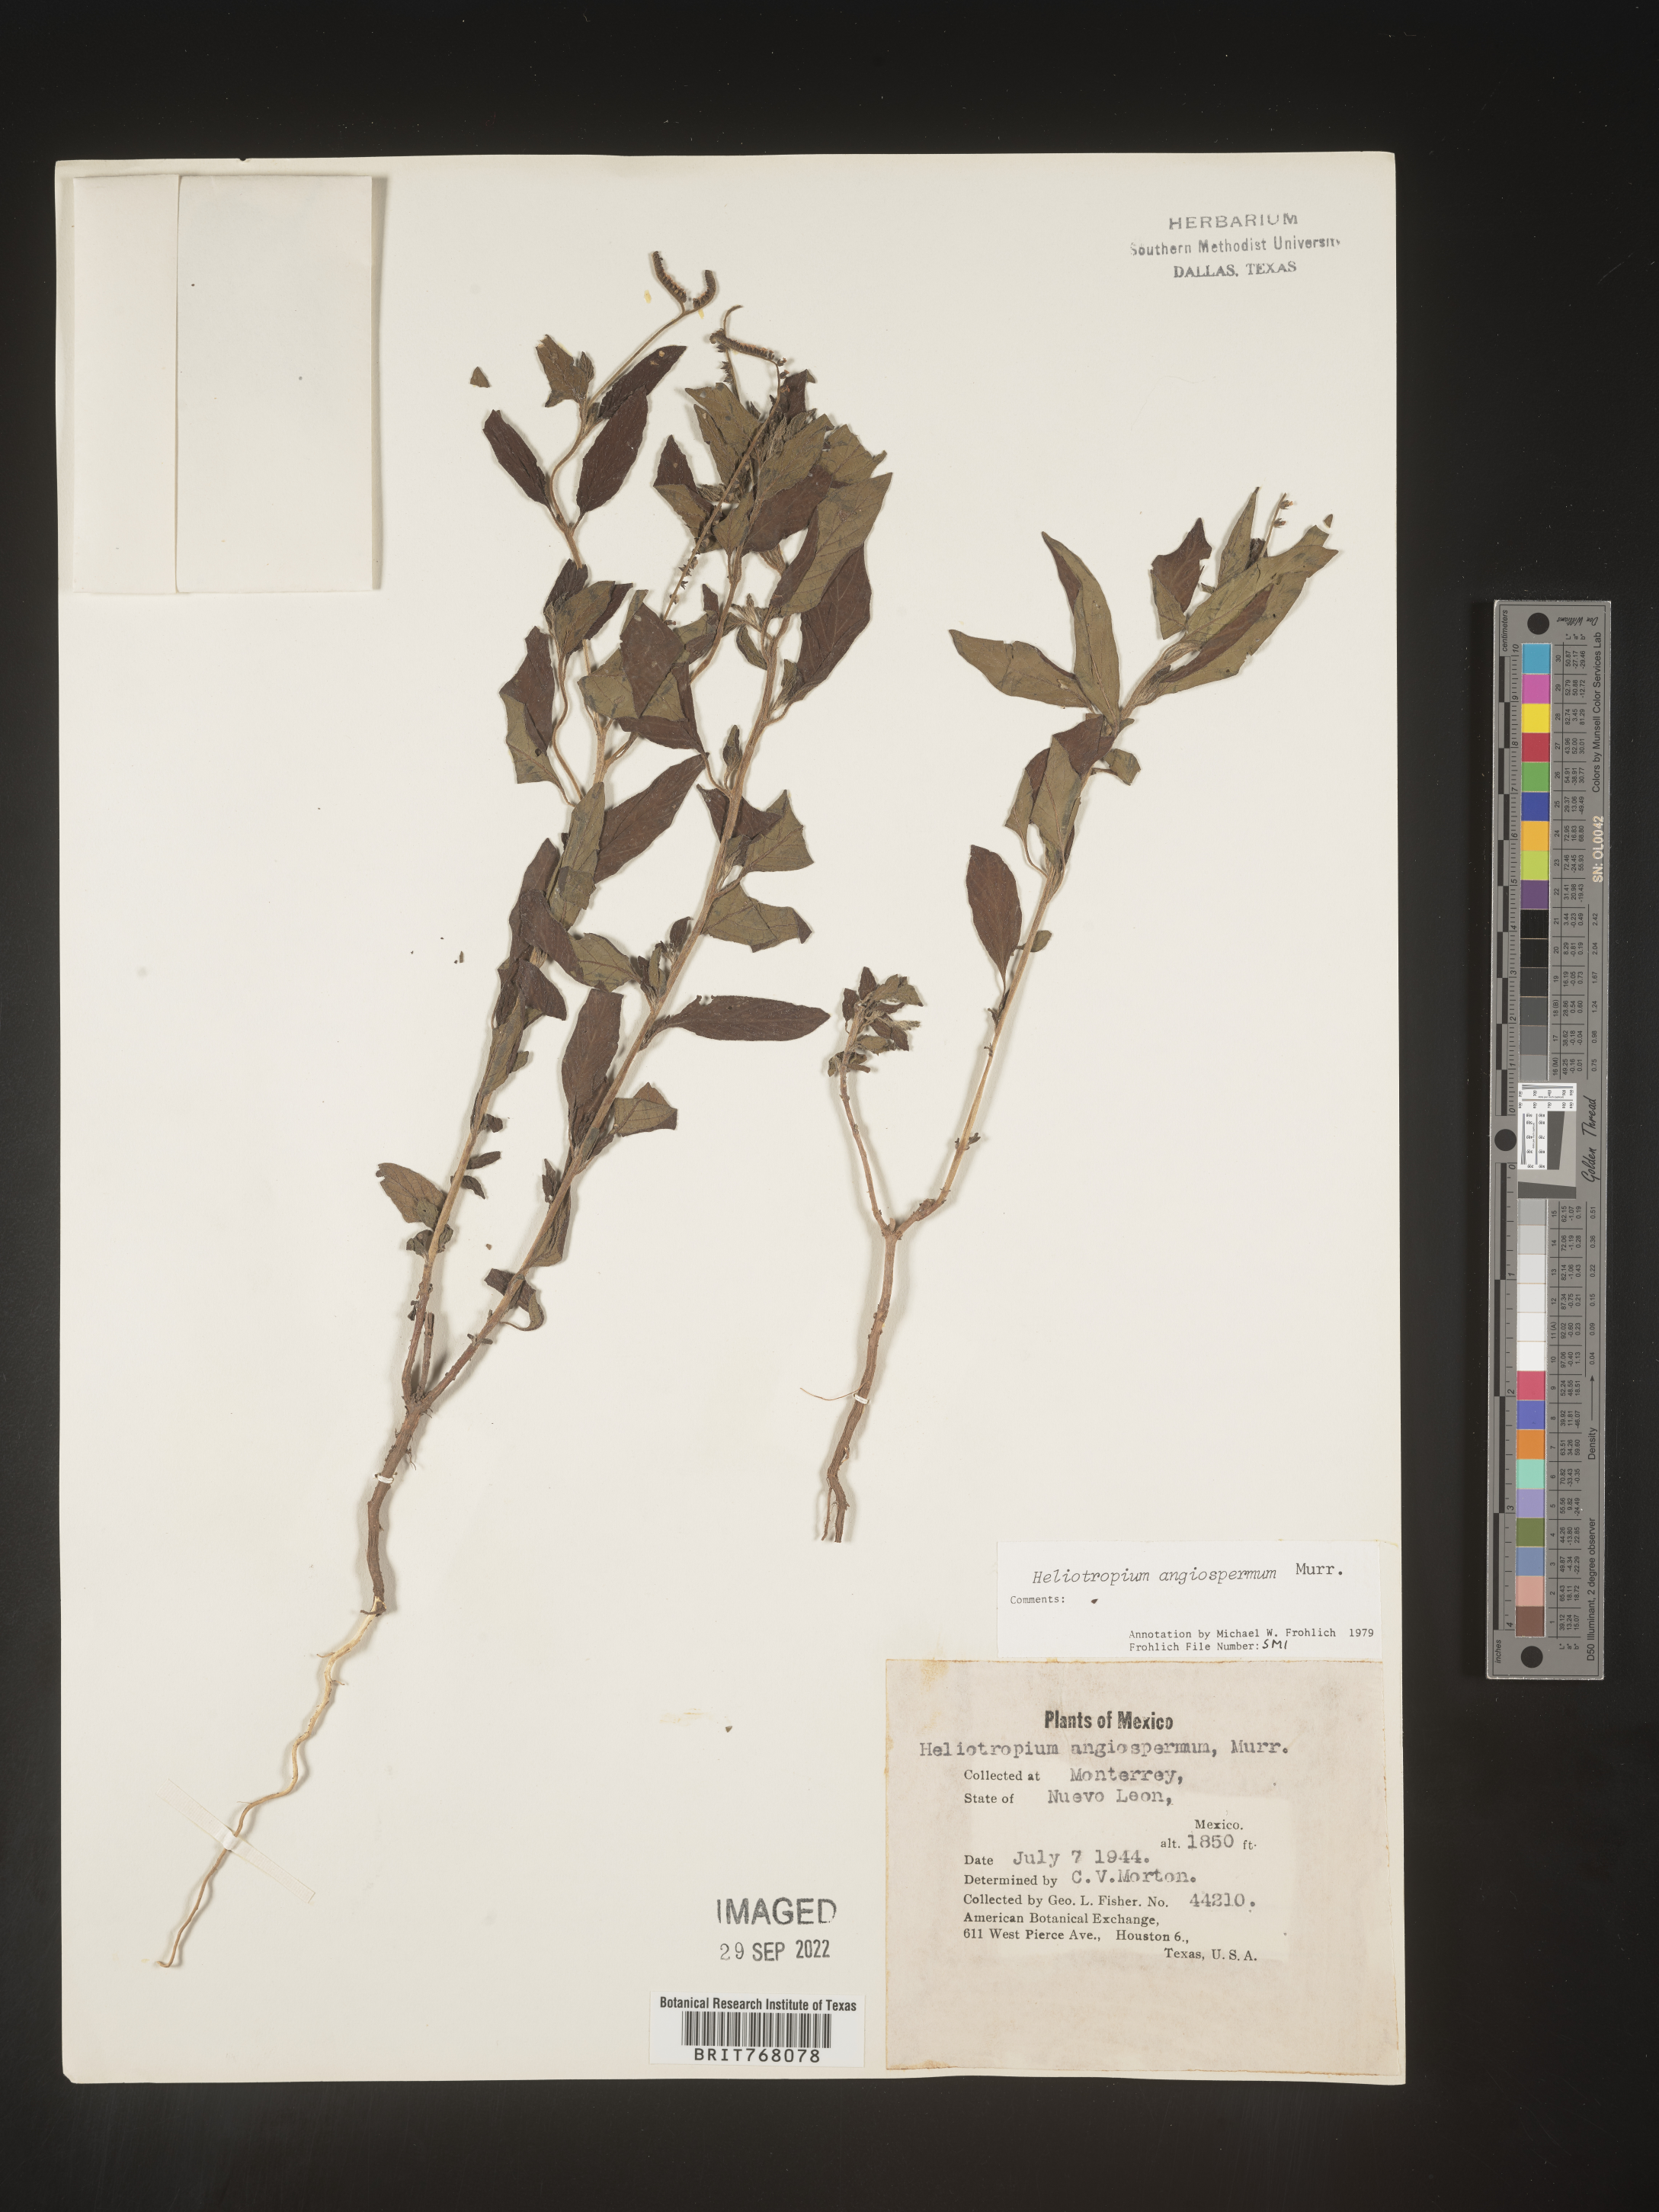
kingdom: Plantae
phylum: Tracheophyta
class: Magnoliopsida
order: Boraginales
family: Heliotropiaceae
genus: Heliotropium
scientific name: Heliotropium
